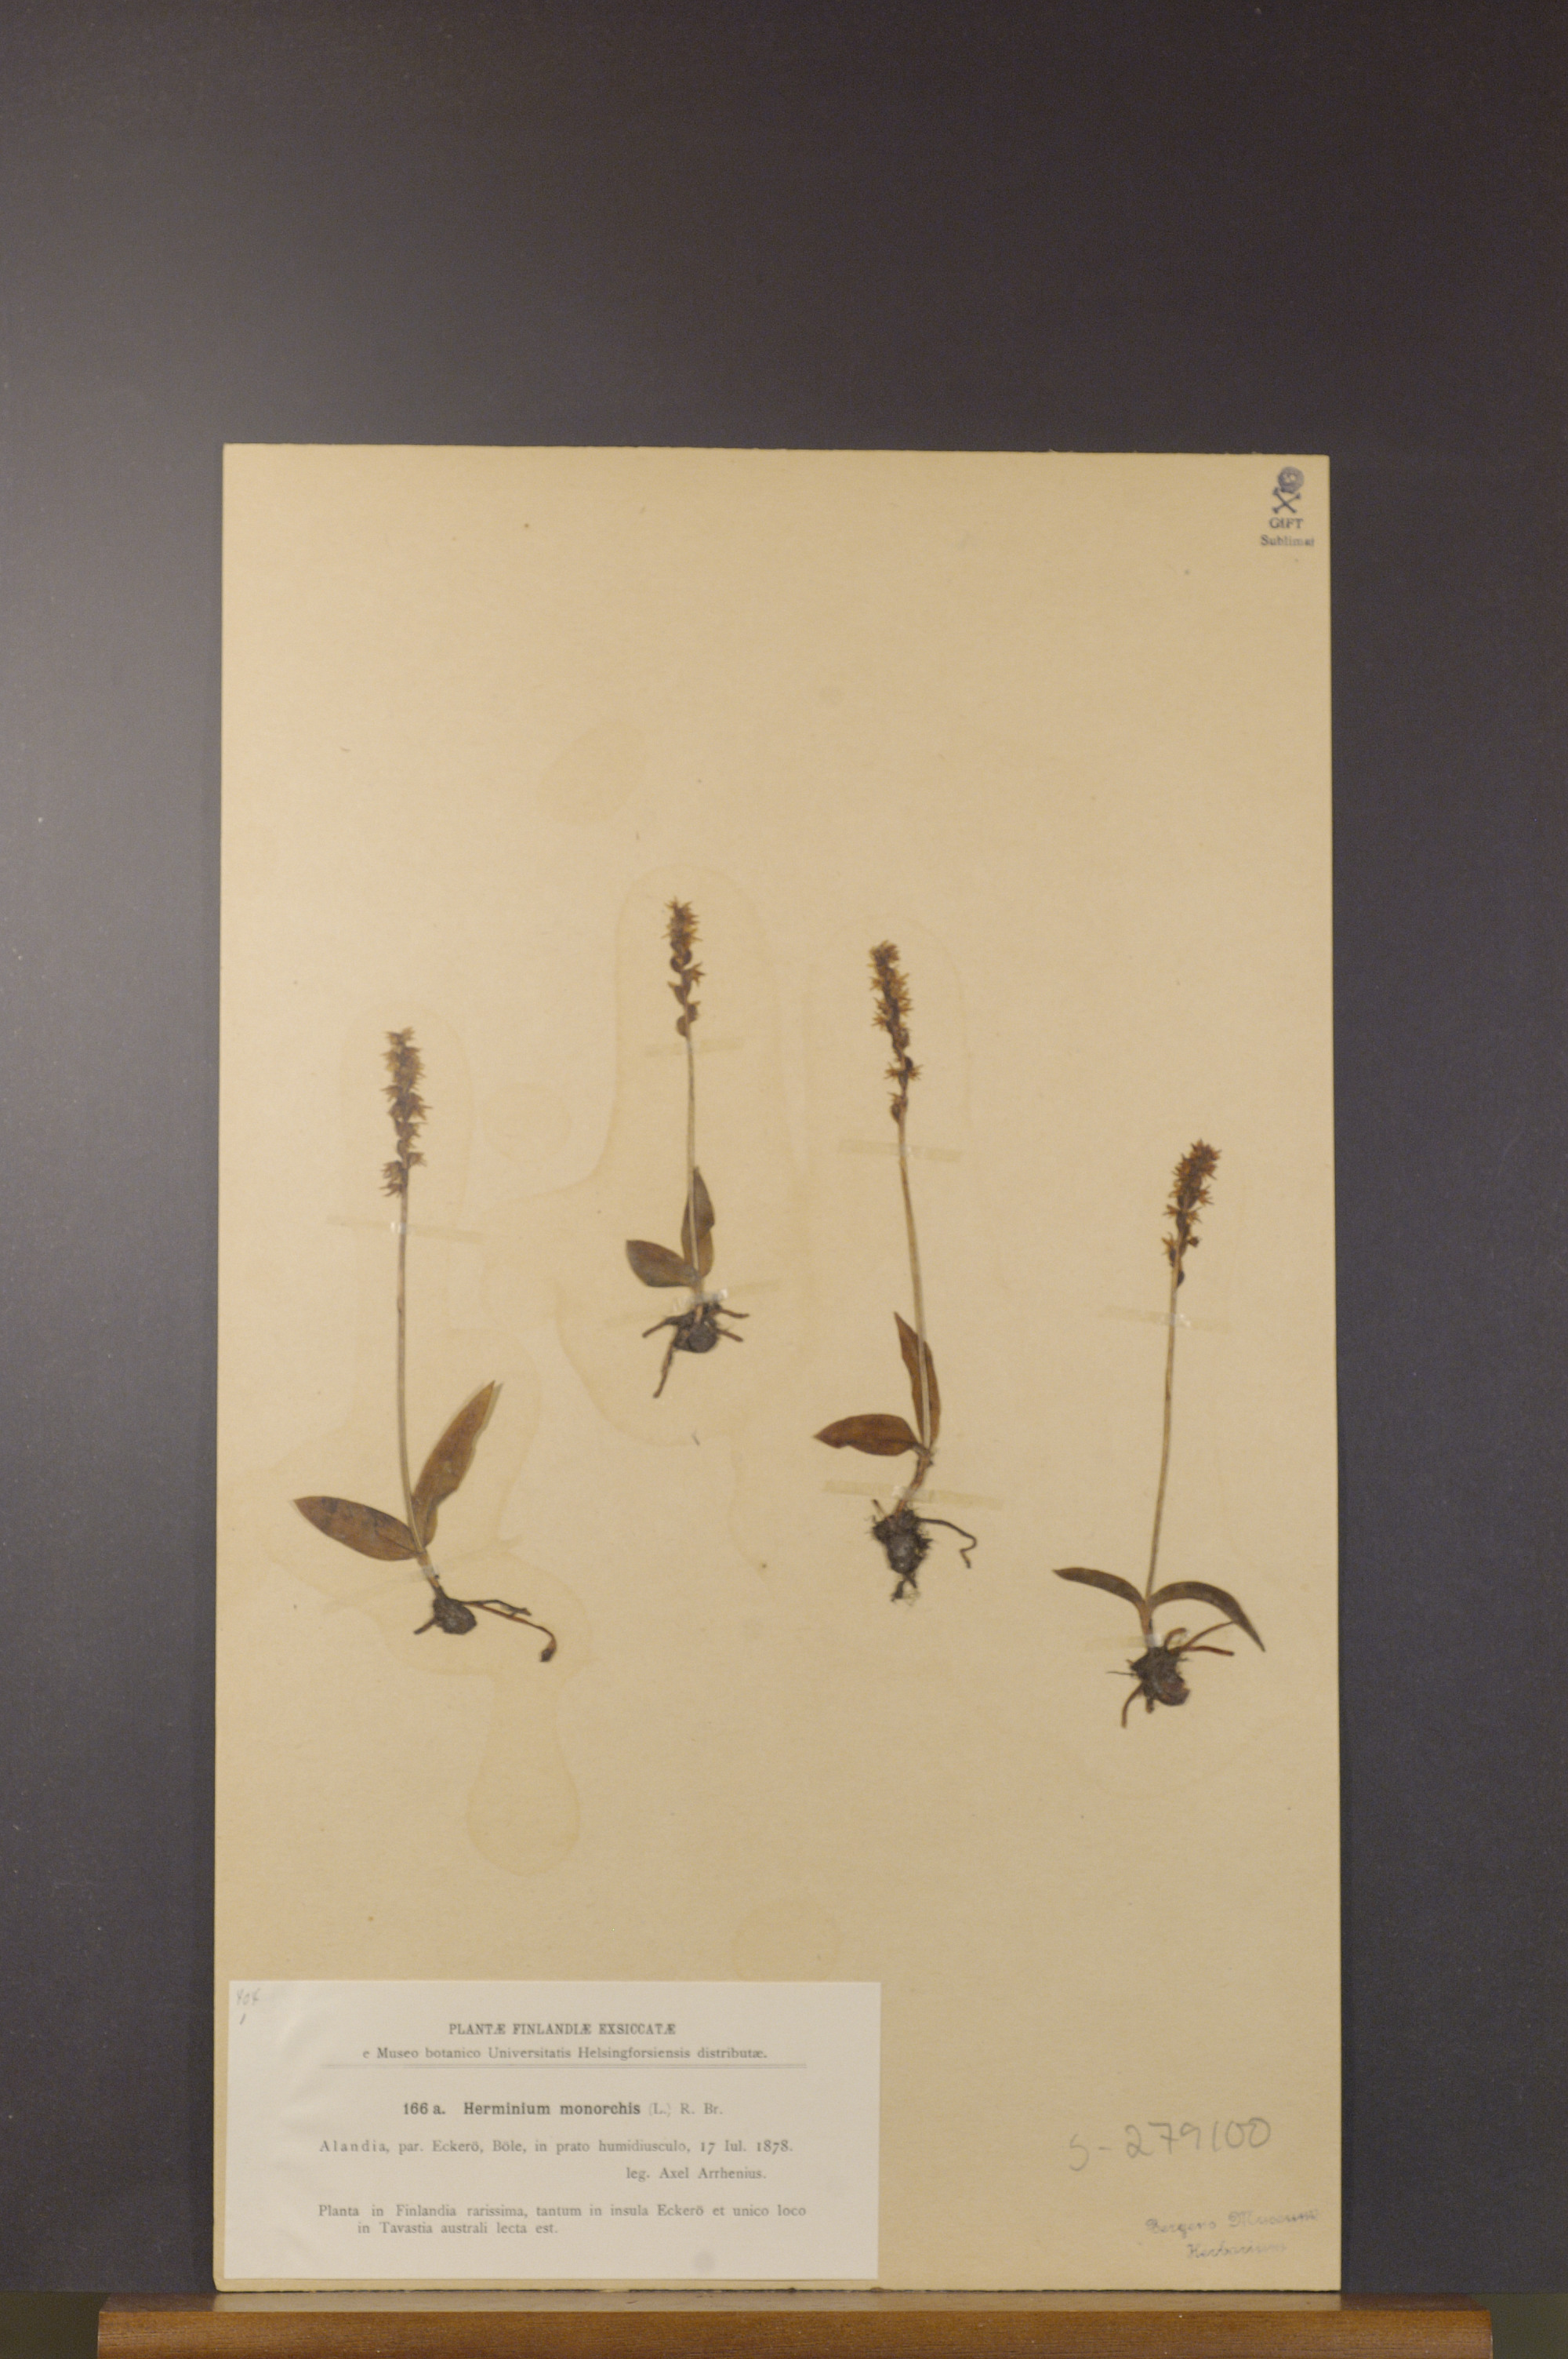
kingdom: Plantae
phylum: Tracheophyta
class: Liliopsida
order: Asparagales
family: Orchidaceae
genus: Herminium
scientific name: Herminium monorchis
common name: Musk orchid
